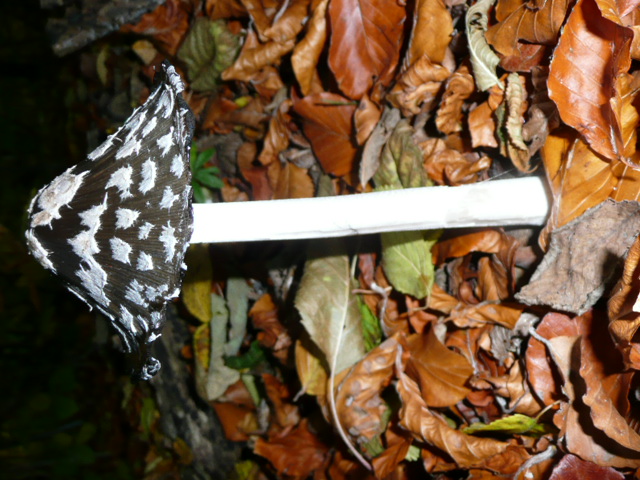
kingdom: Fungi
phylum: Basidiomycota
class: Agaricomycetes
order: Agaricales
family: Psathyrellaceae
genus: Coprinopsis
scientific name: Coprinopsis picacea
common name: skade-blækhat
